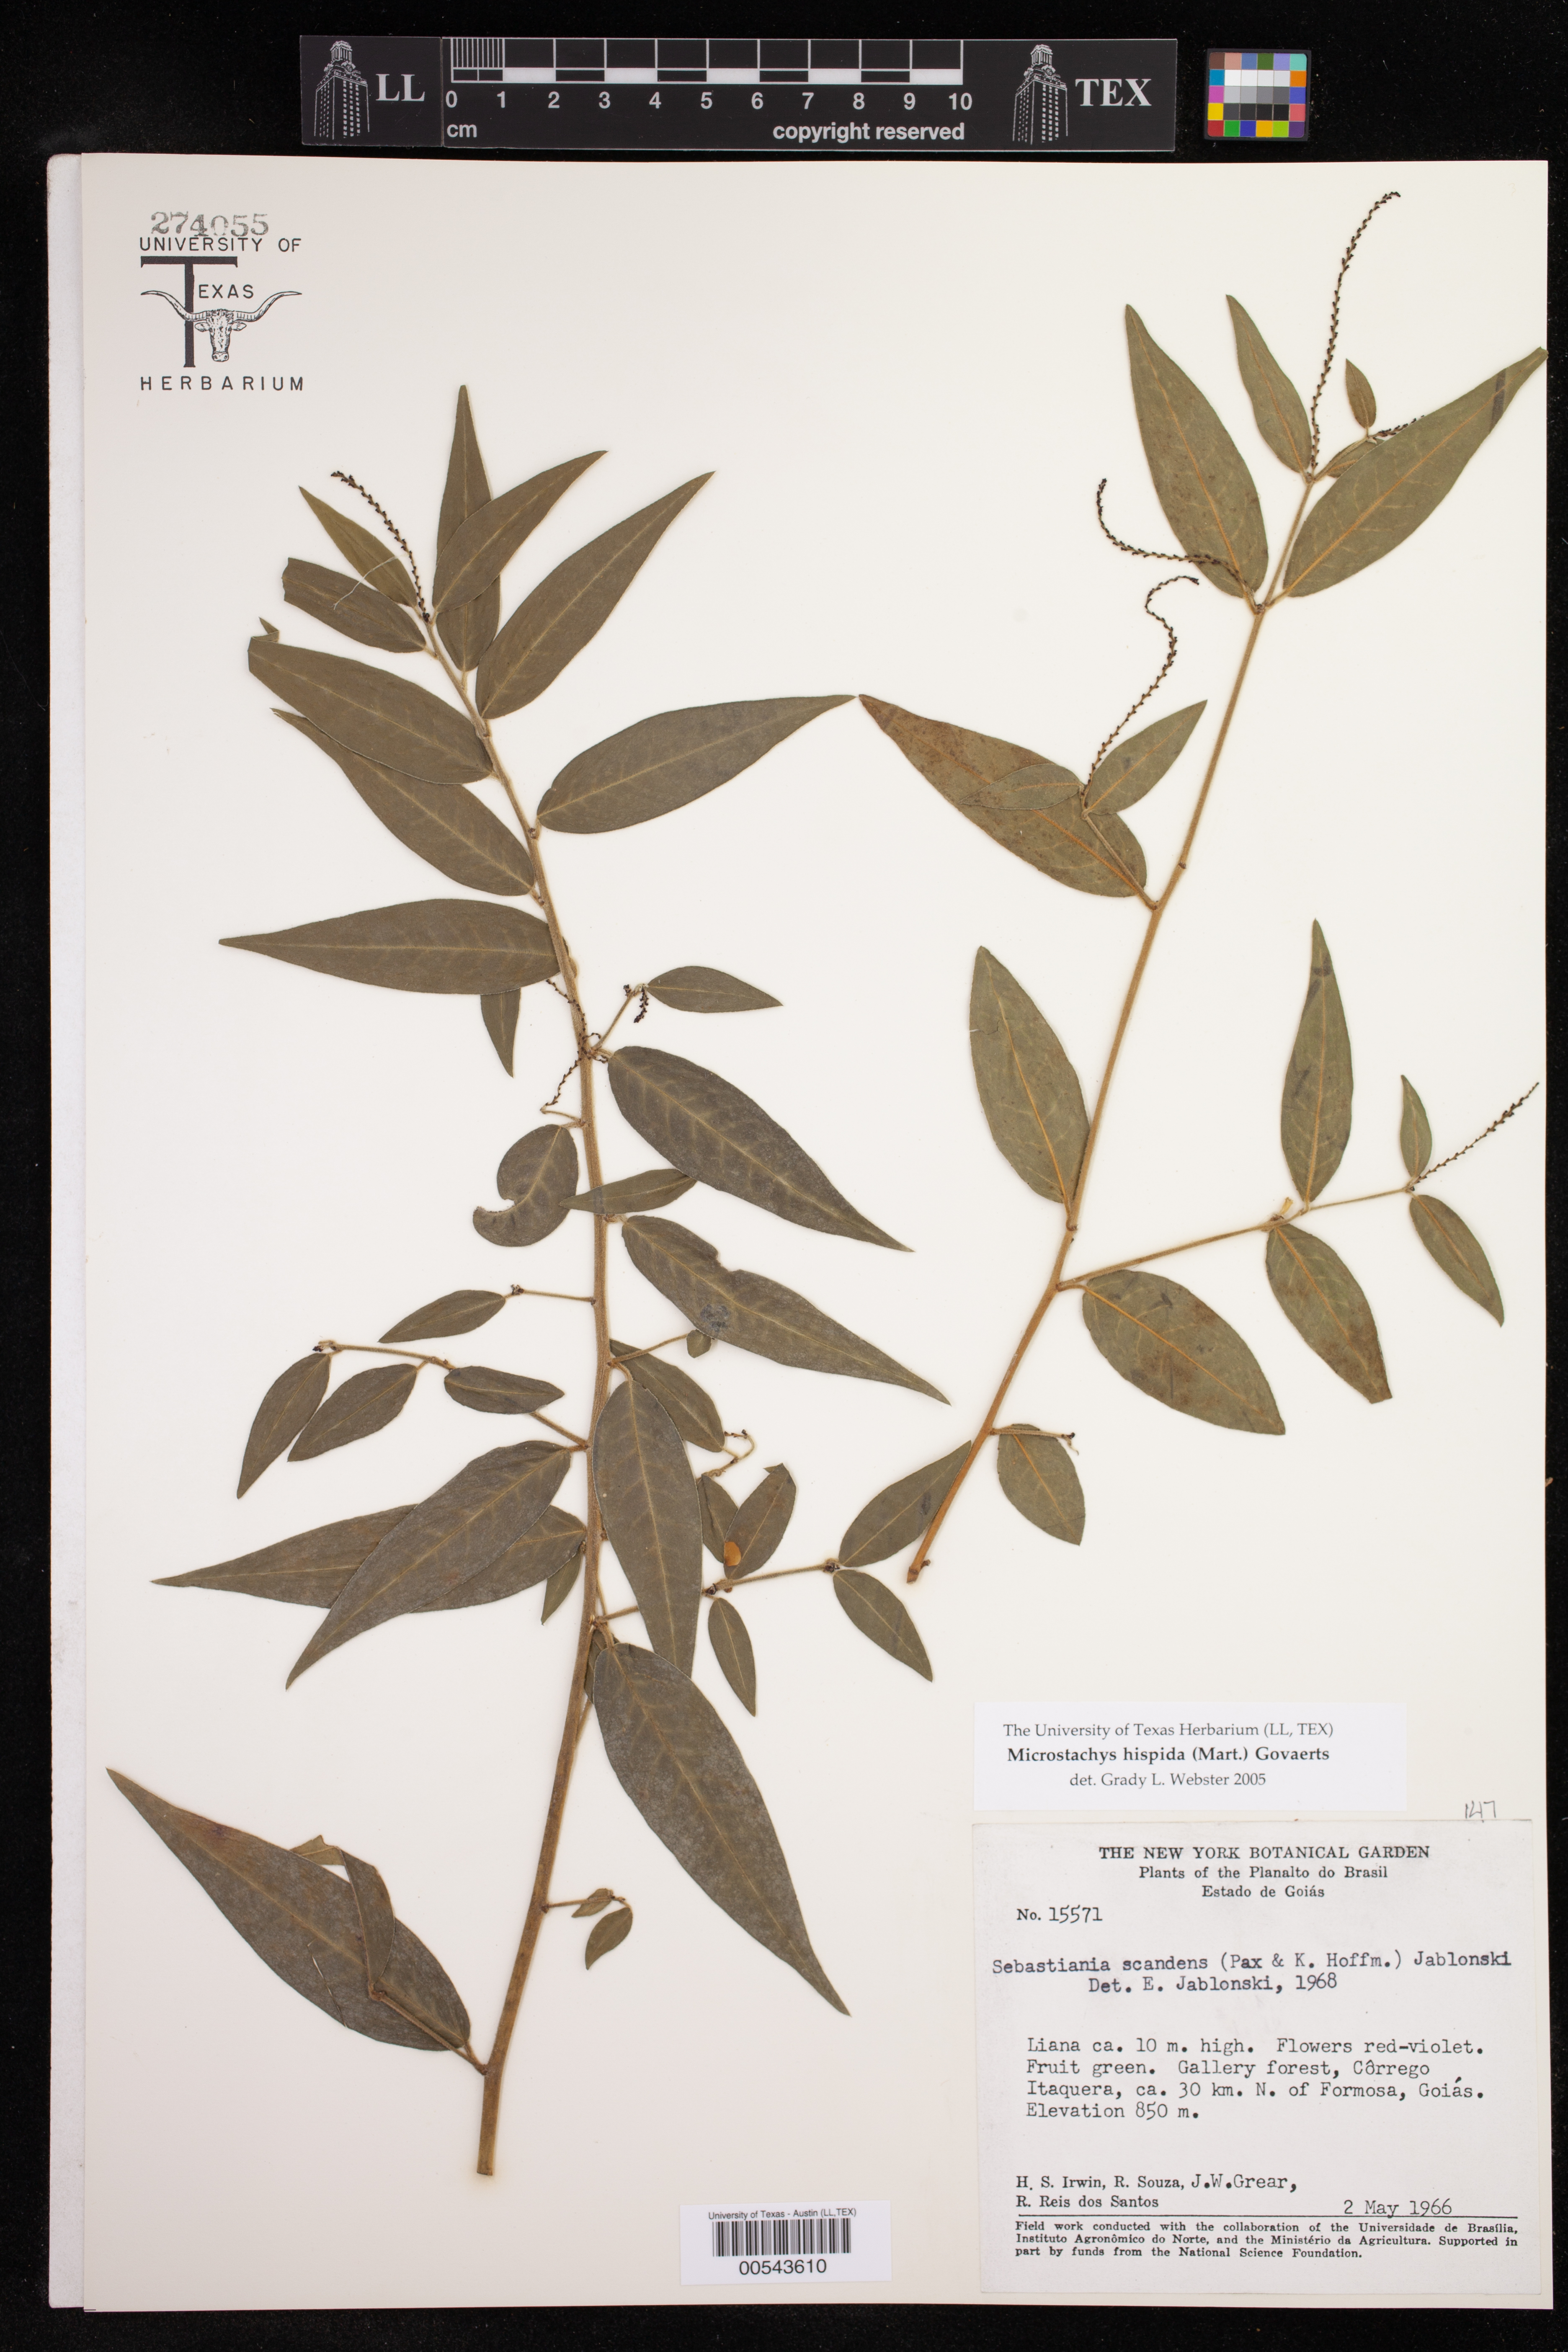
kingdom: Plantae
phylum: Tracheophyta
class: Magnoliopsida
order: Malpighiales
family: Euphorbiaceae
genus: Microstachys
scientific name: Microstachys hispida
